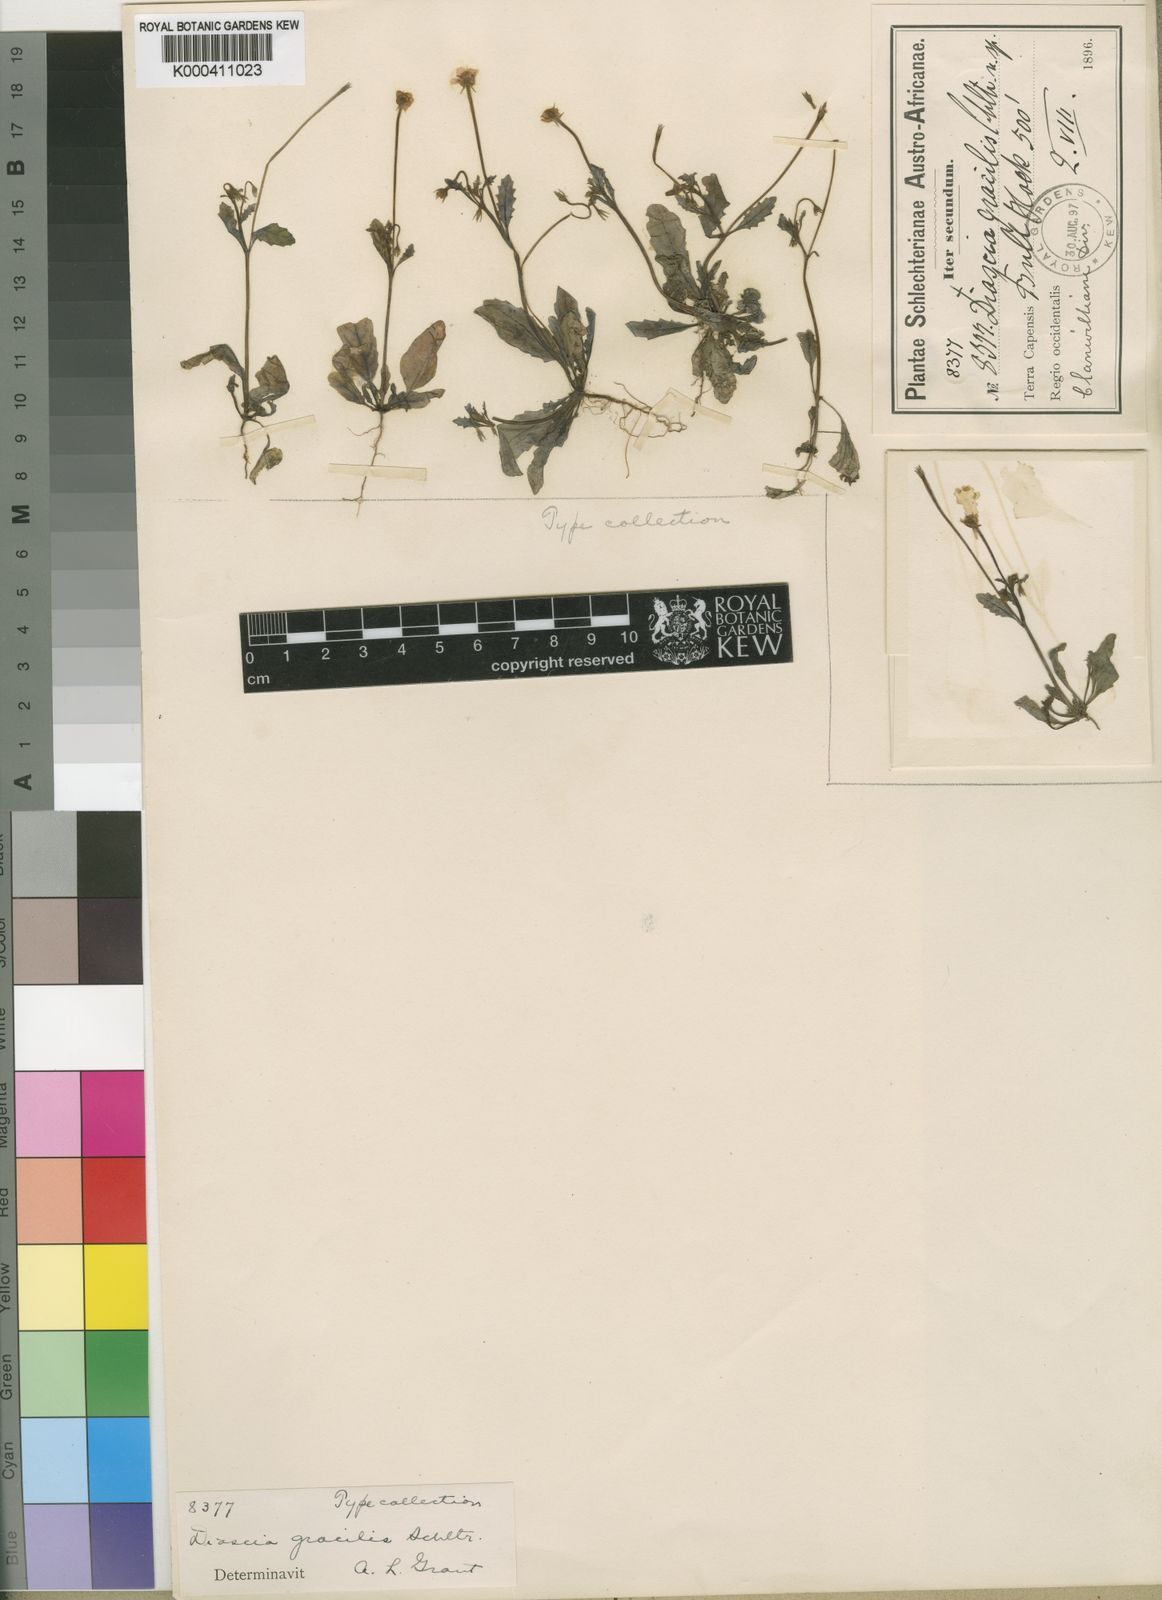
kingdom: Plantae
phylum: Tracheophyta
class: Magnoliopsida
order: Lamiales
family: Scrophulariaceae
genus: Diascia
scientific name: Diascia gracilis
